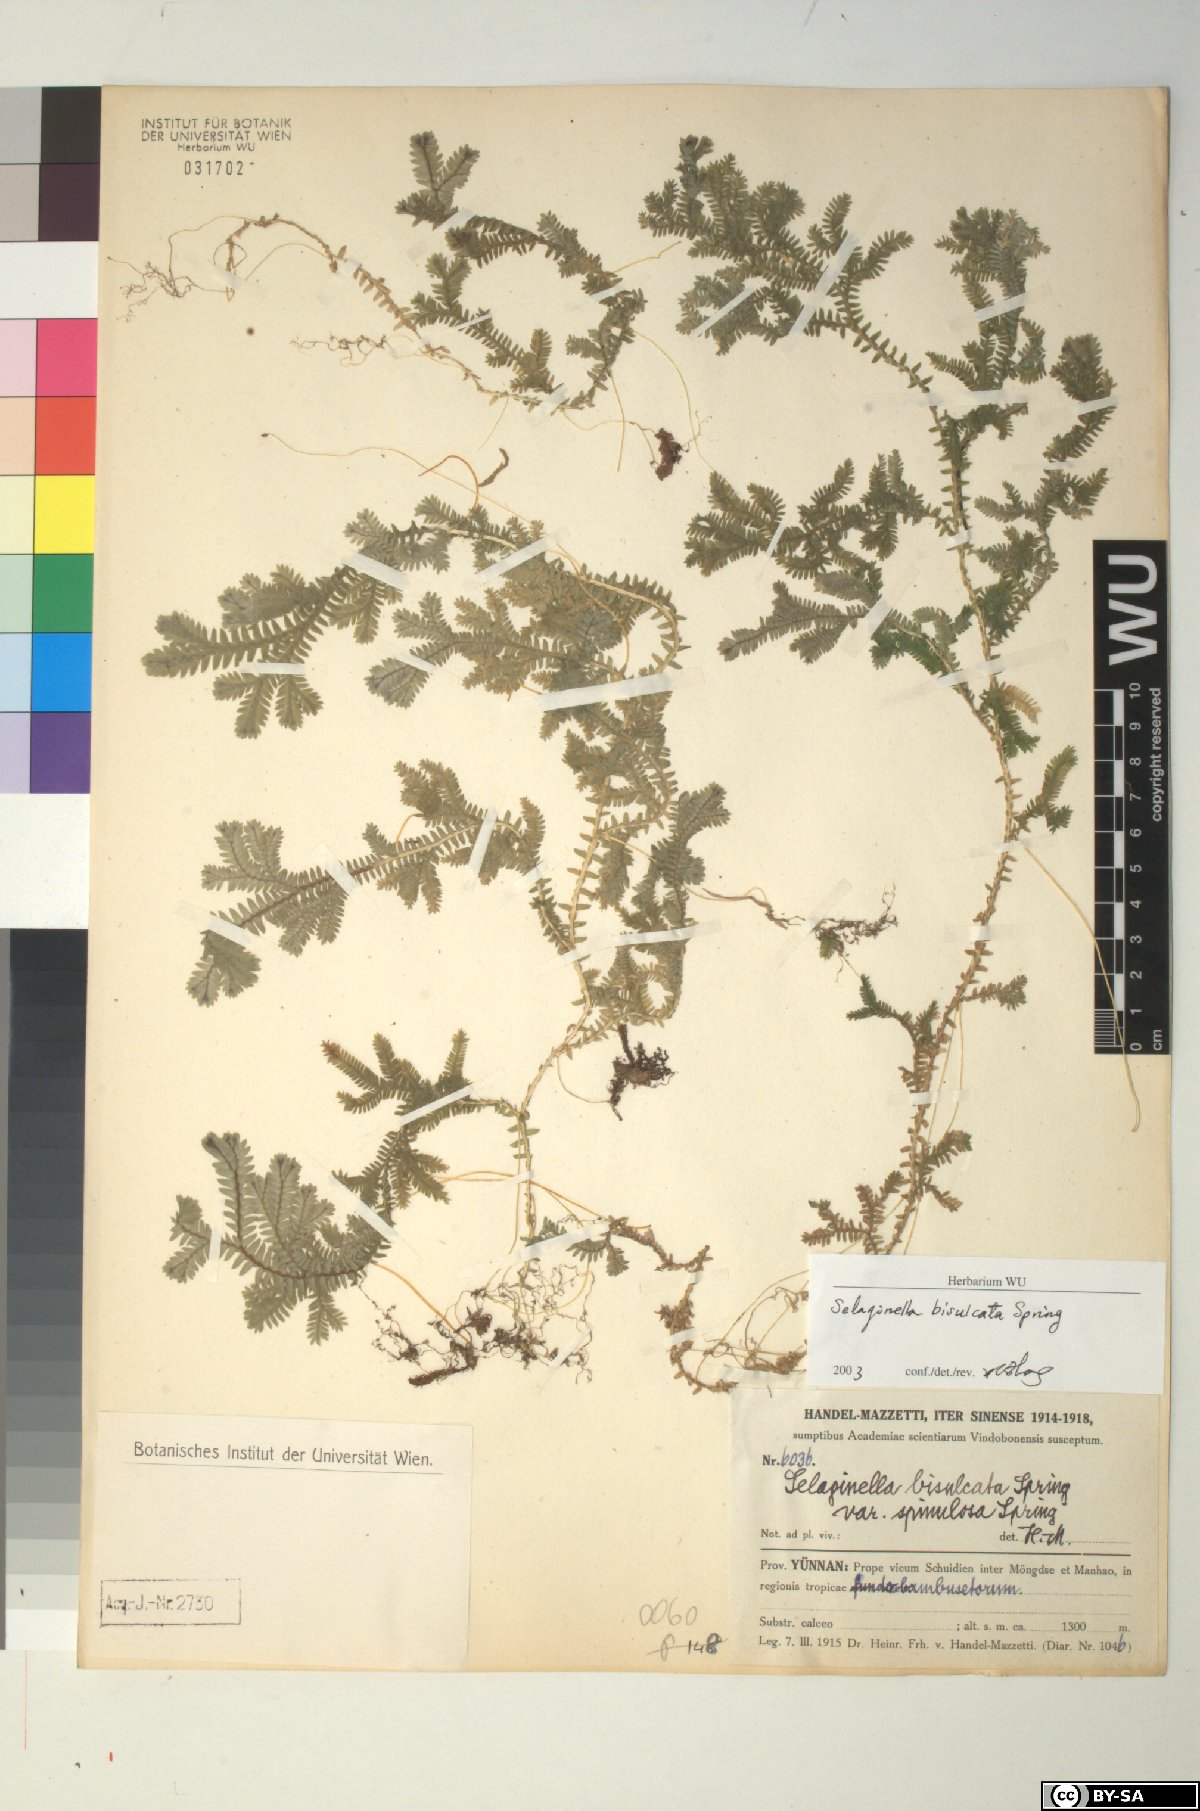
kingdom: Plantae
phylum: Tracheophyta
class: Lycopodiopsida
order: Selaginellales
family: Selaginellaceae
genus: Selaginella
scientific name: Selaginella bisulcata
